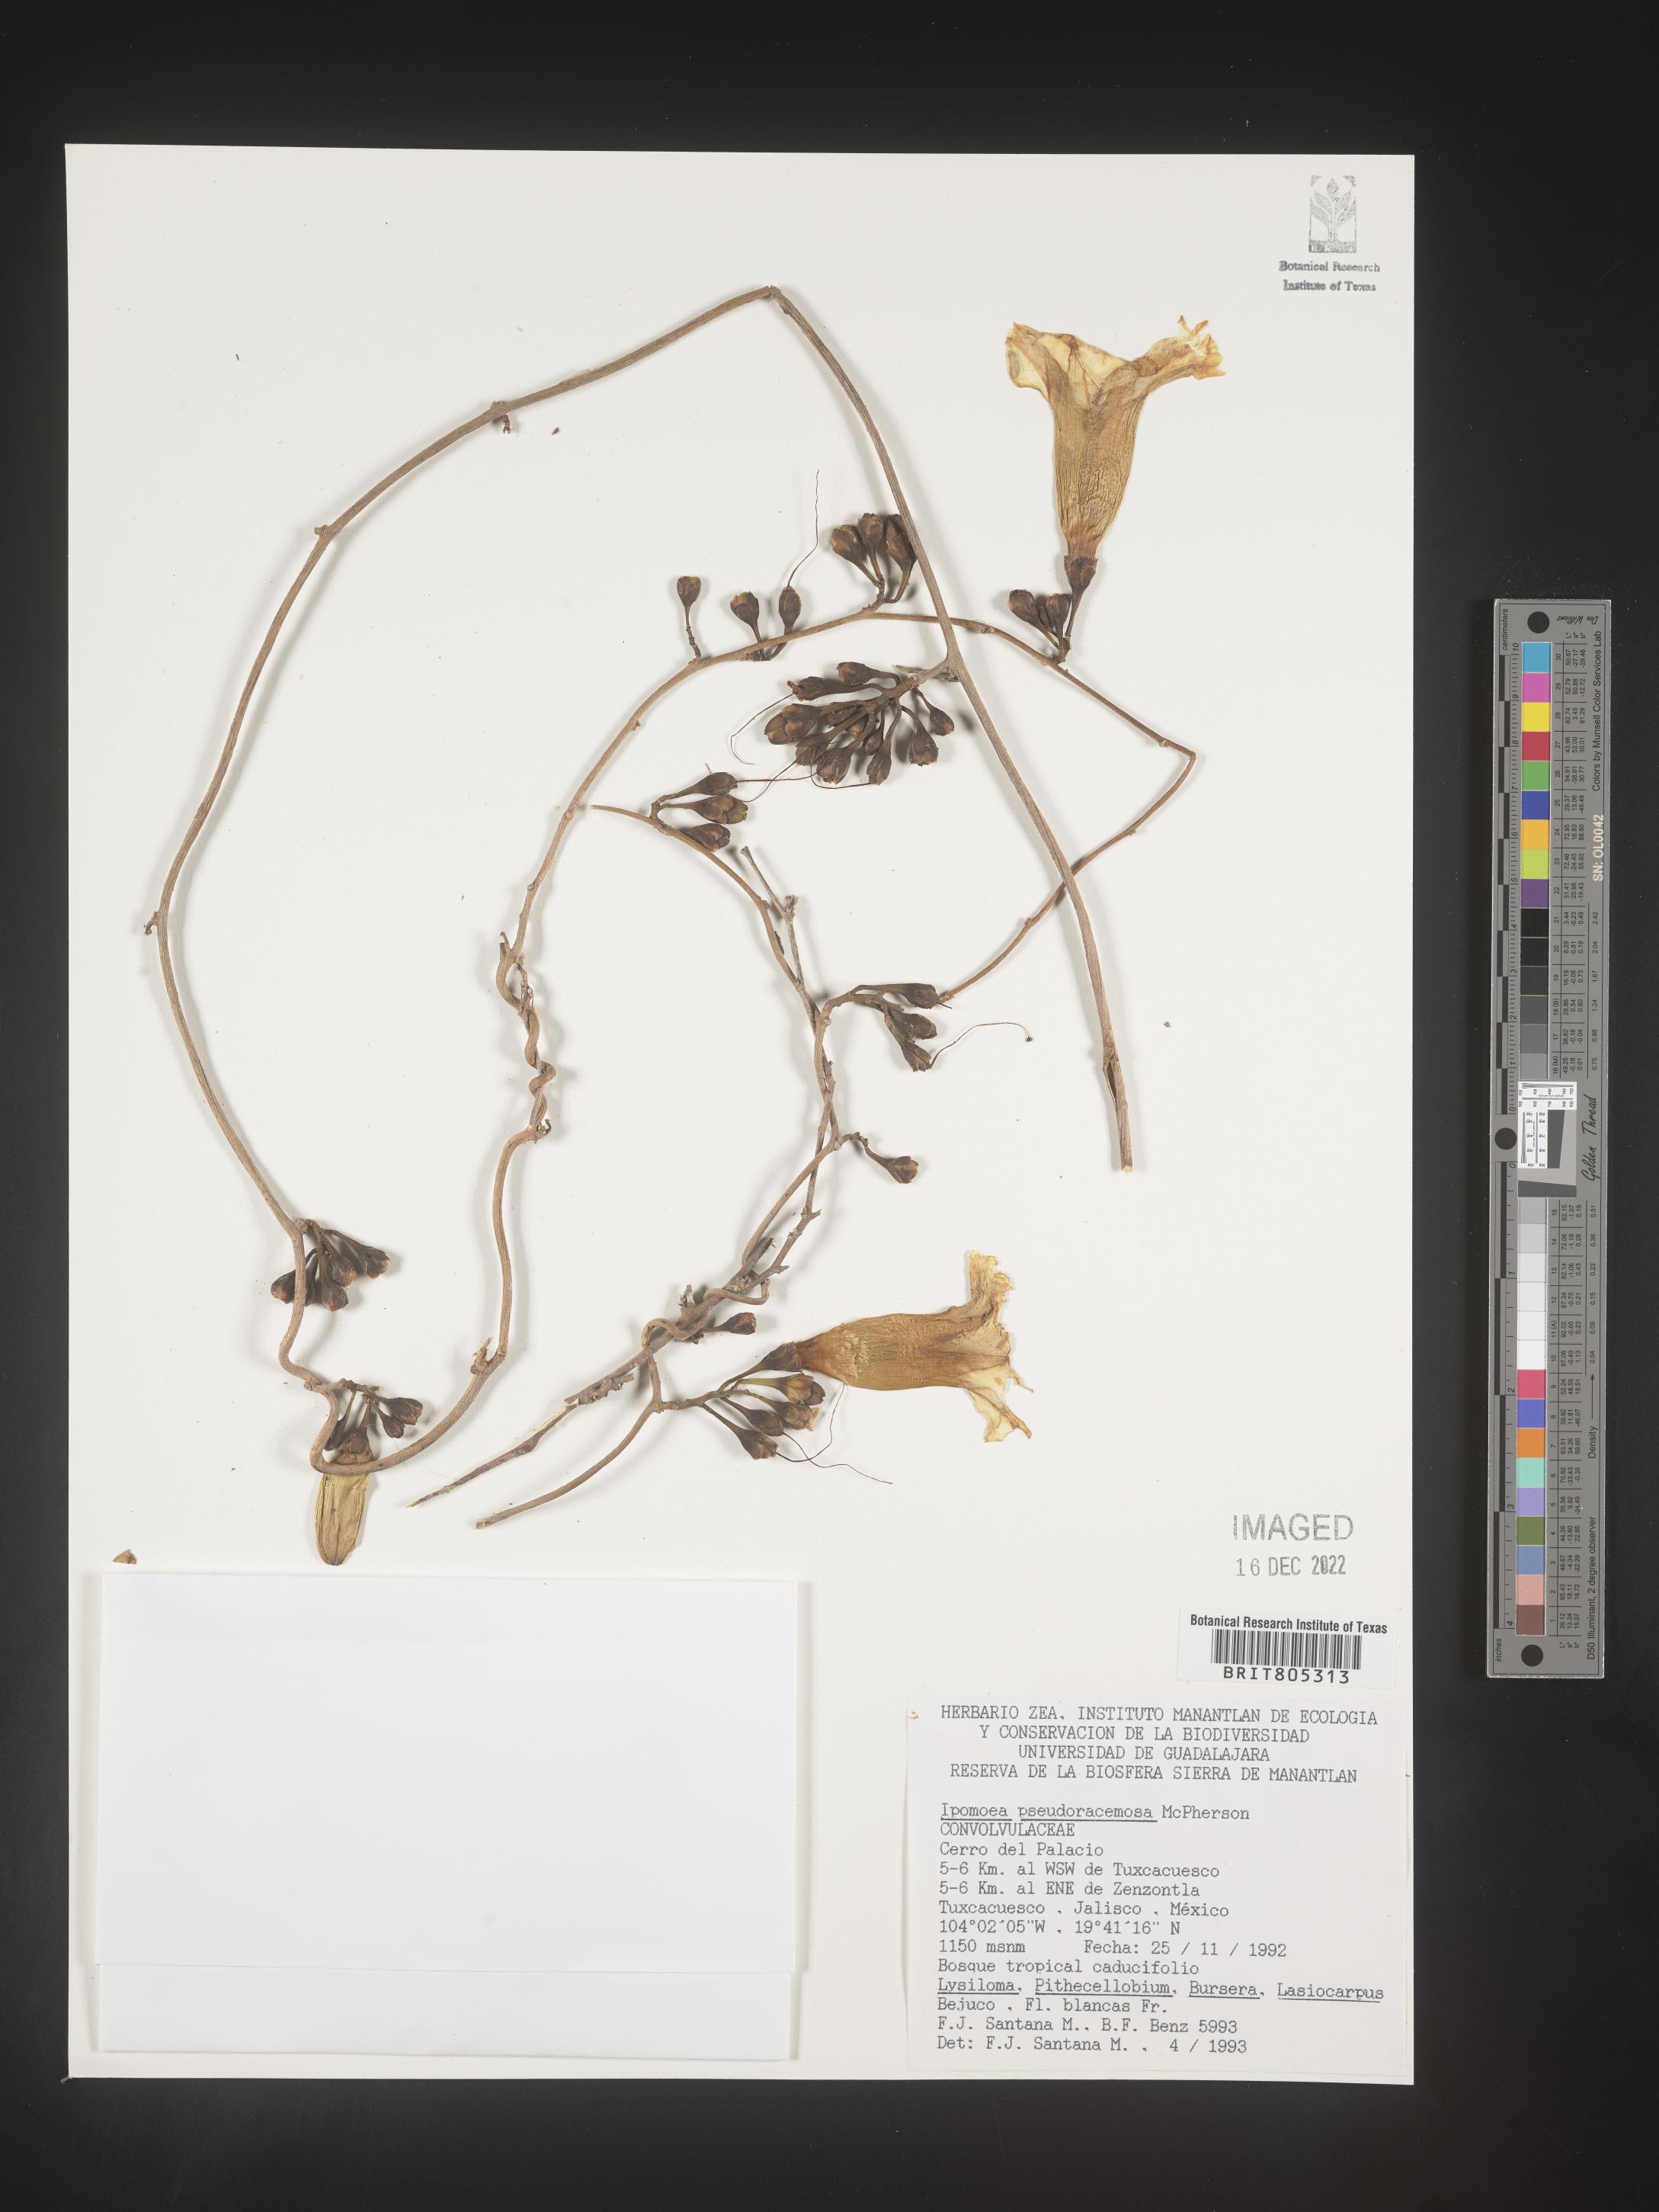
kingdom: Plantae
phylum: Tracheophyta
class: Magnoliopsida
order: Solanales
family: Convolvulaceae
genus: Ipomoea
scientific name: Ipomoea
